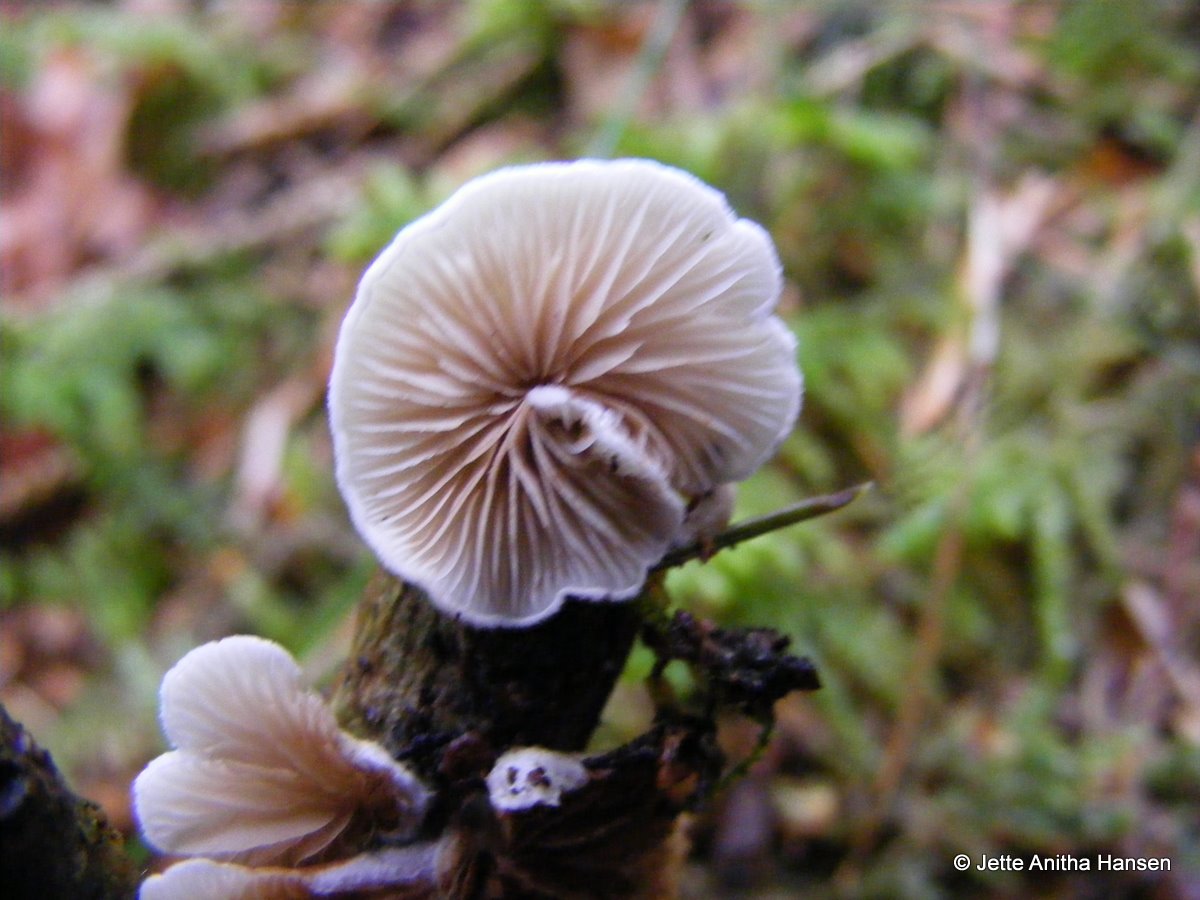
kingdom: Fungi
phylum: Basidiomycota
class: Agaricomycetes
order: Agaricales
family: Crepidotaceae
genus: Crepidotus
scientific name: Crepidotus variabilis
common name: forskelligformet muslingesvamp
